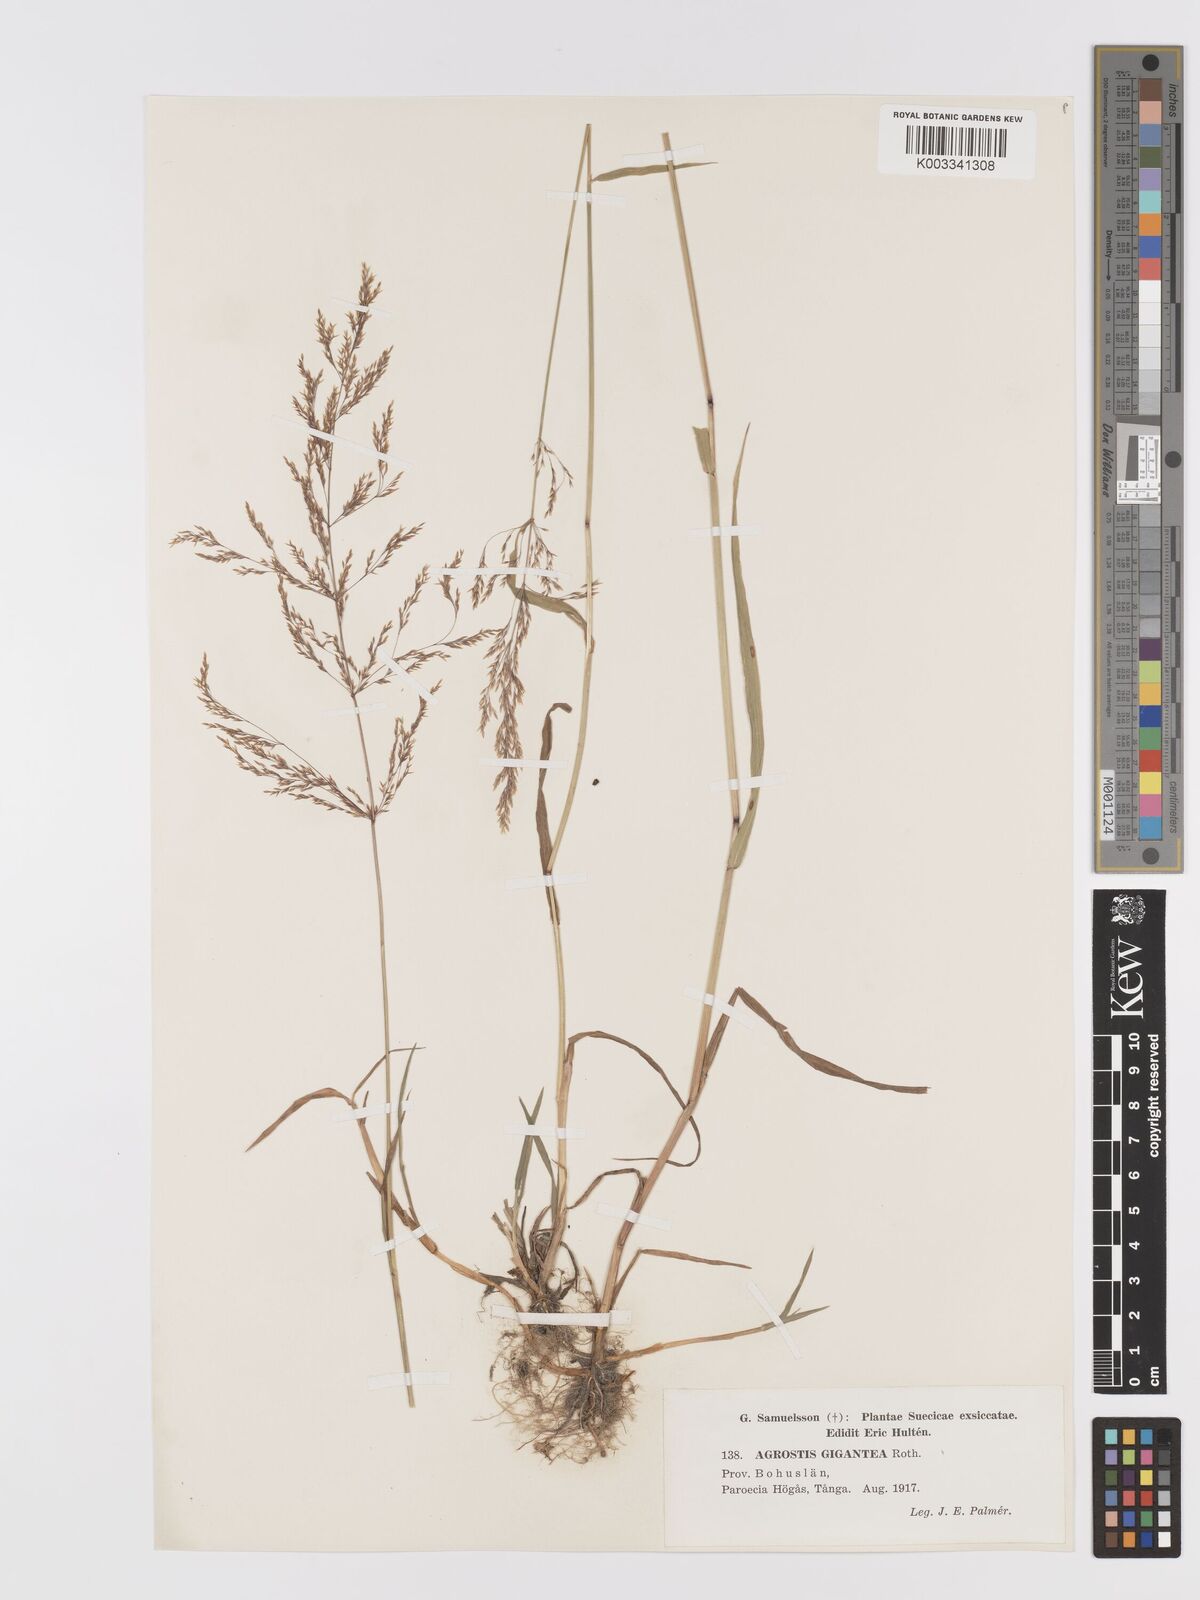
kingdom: Plantae
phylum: Tracheophyta
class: Liliopsida
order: Poales
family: Poaceae
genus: Agrostis
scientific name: Agrostis gigantea
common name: Black bent
